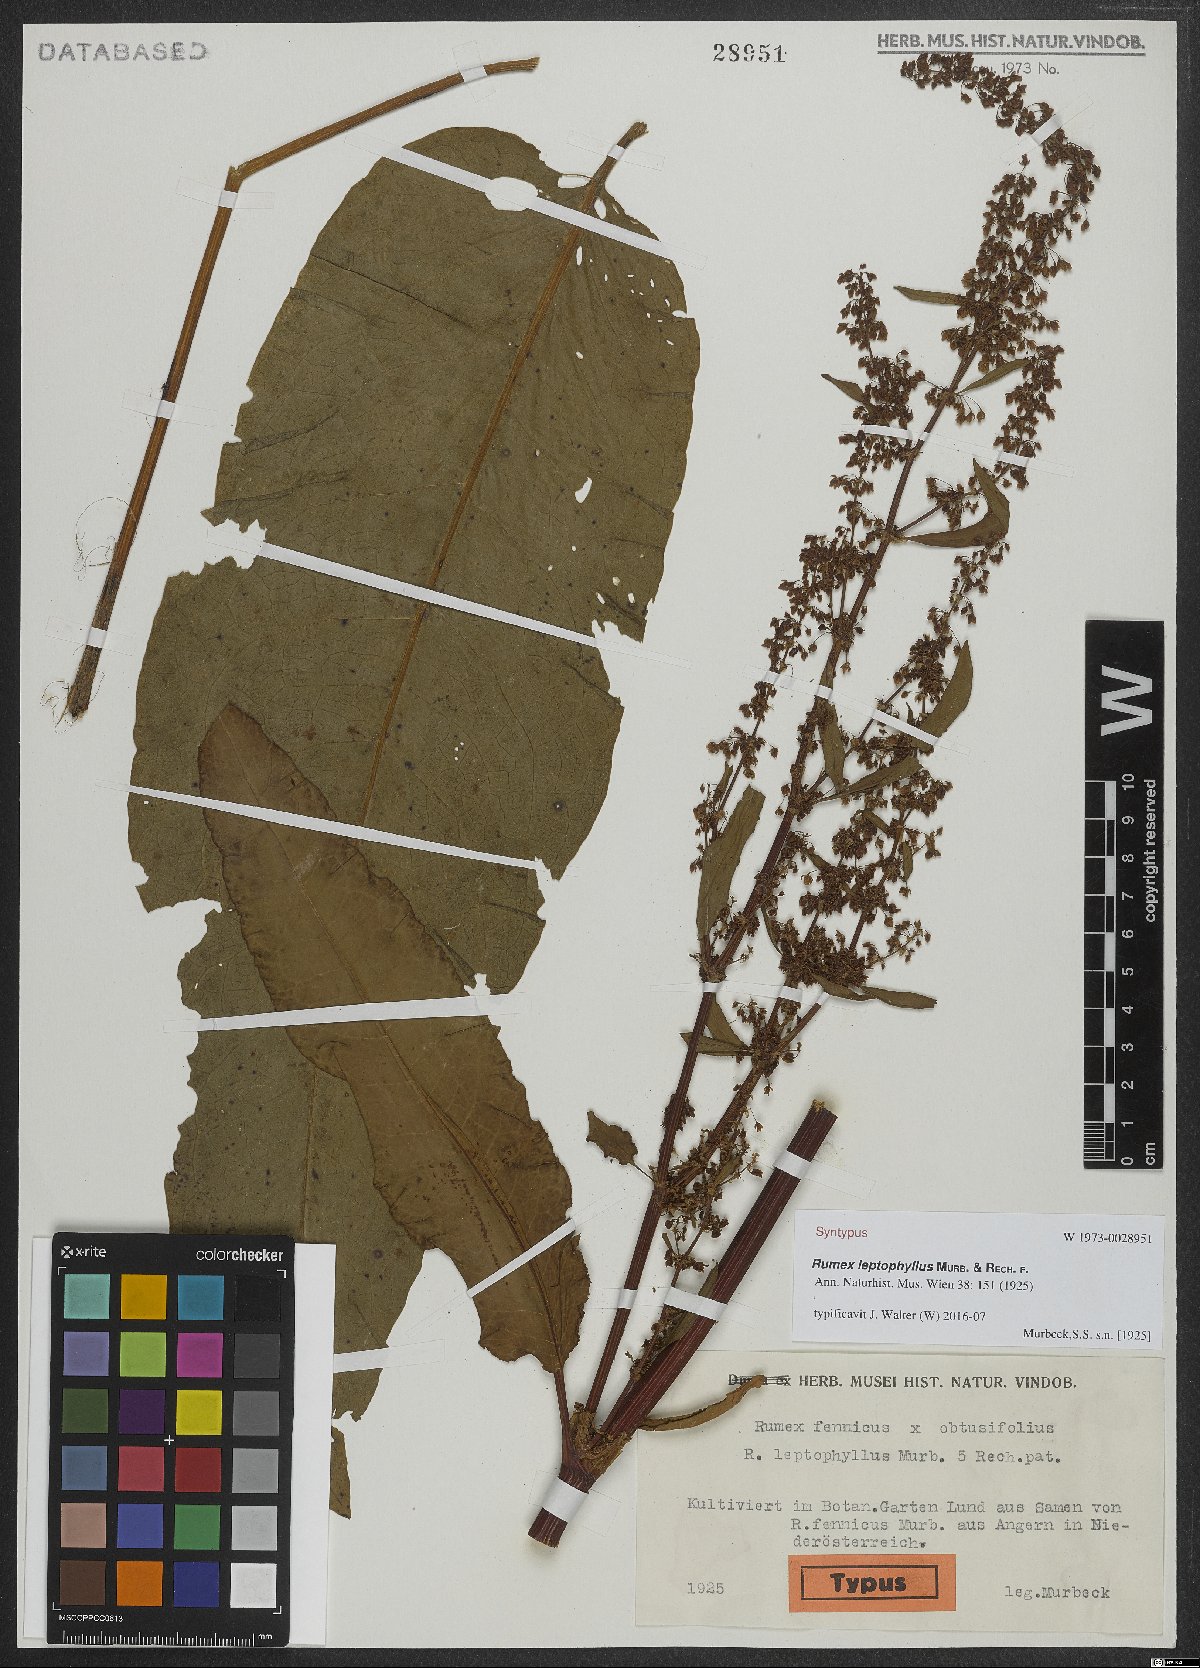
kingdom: Plantae
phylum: Tracheophyta
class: Magnoliopsida
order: Caryophyllales
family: Polygonaceae
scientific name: Polygonaceae
